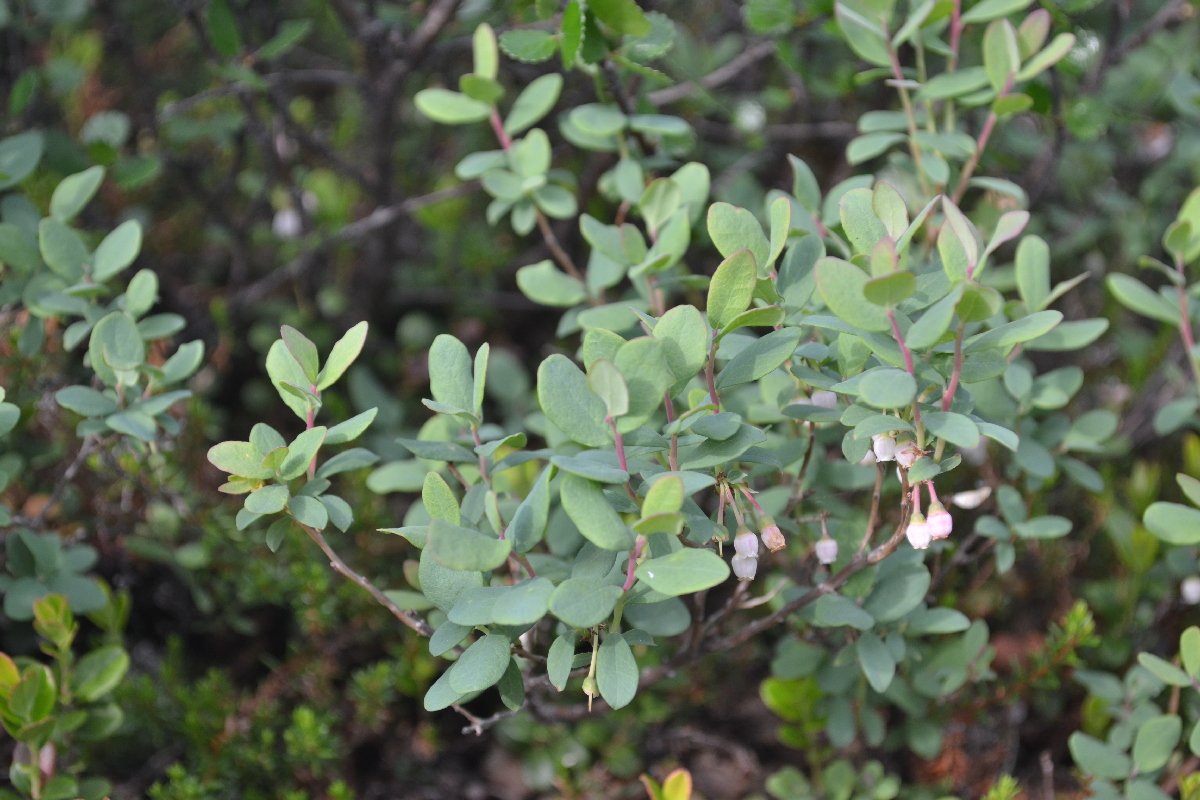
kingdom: Plantae
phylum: Tracheophyta
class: Magnoliopsida
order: Ericales
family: Ericaceae
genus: Vaccinium
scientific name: Vaccinium uliginosum
